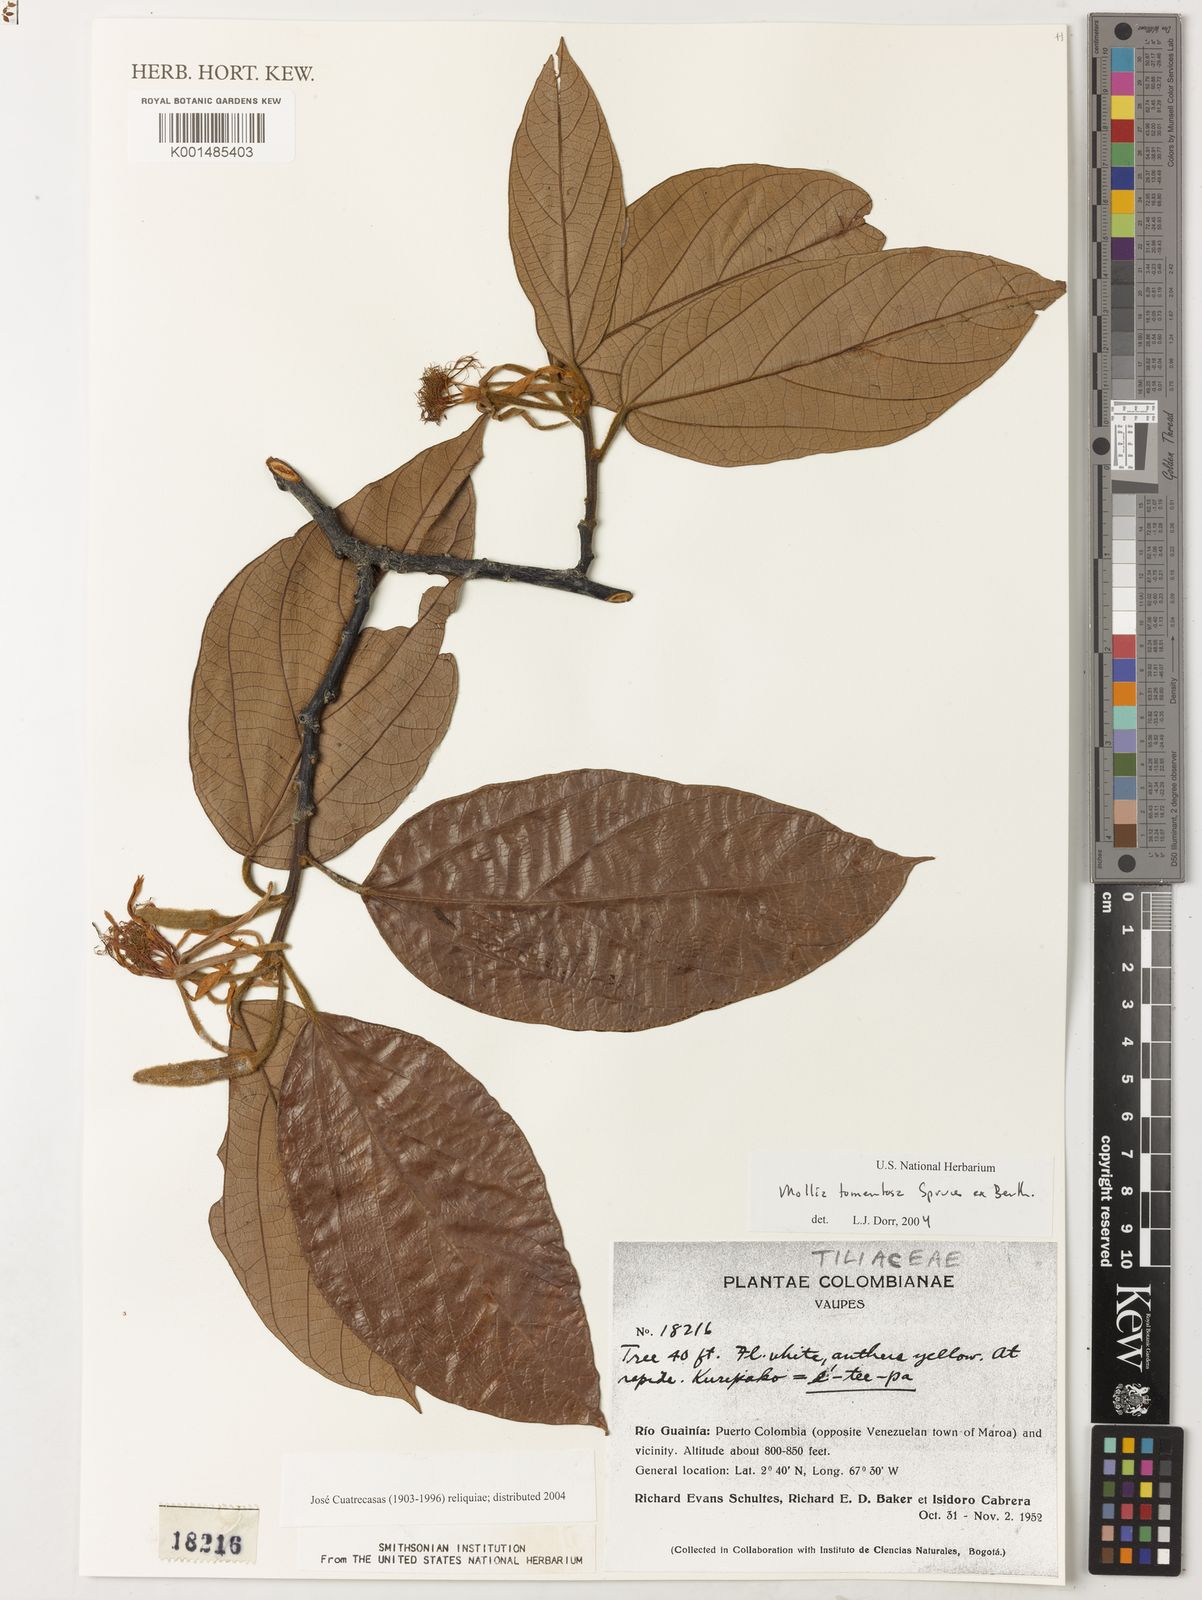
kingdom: Plantae
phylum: Tracheophyta
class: Magnoliopsida
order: Malvales
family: Malvaceae
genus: Mollia
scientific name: Mollia tomentosa
